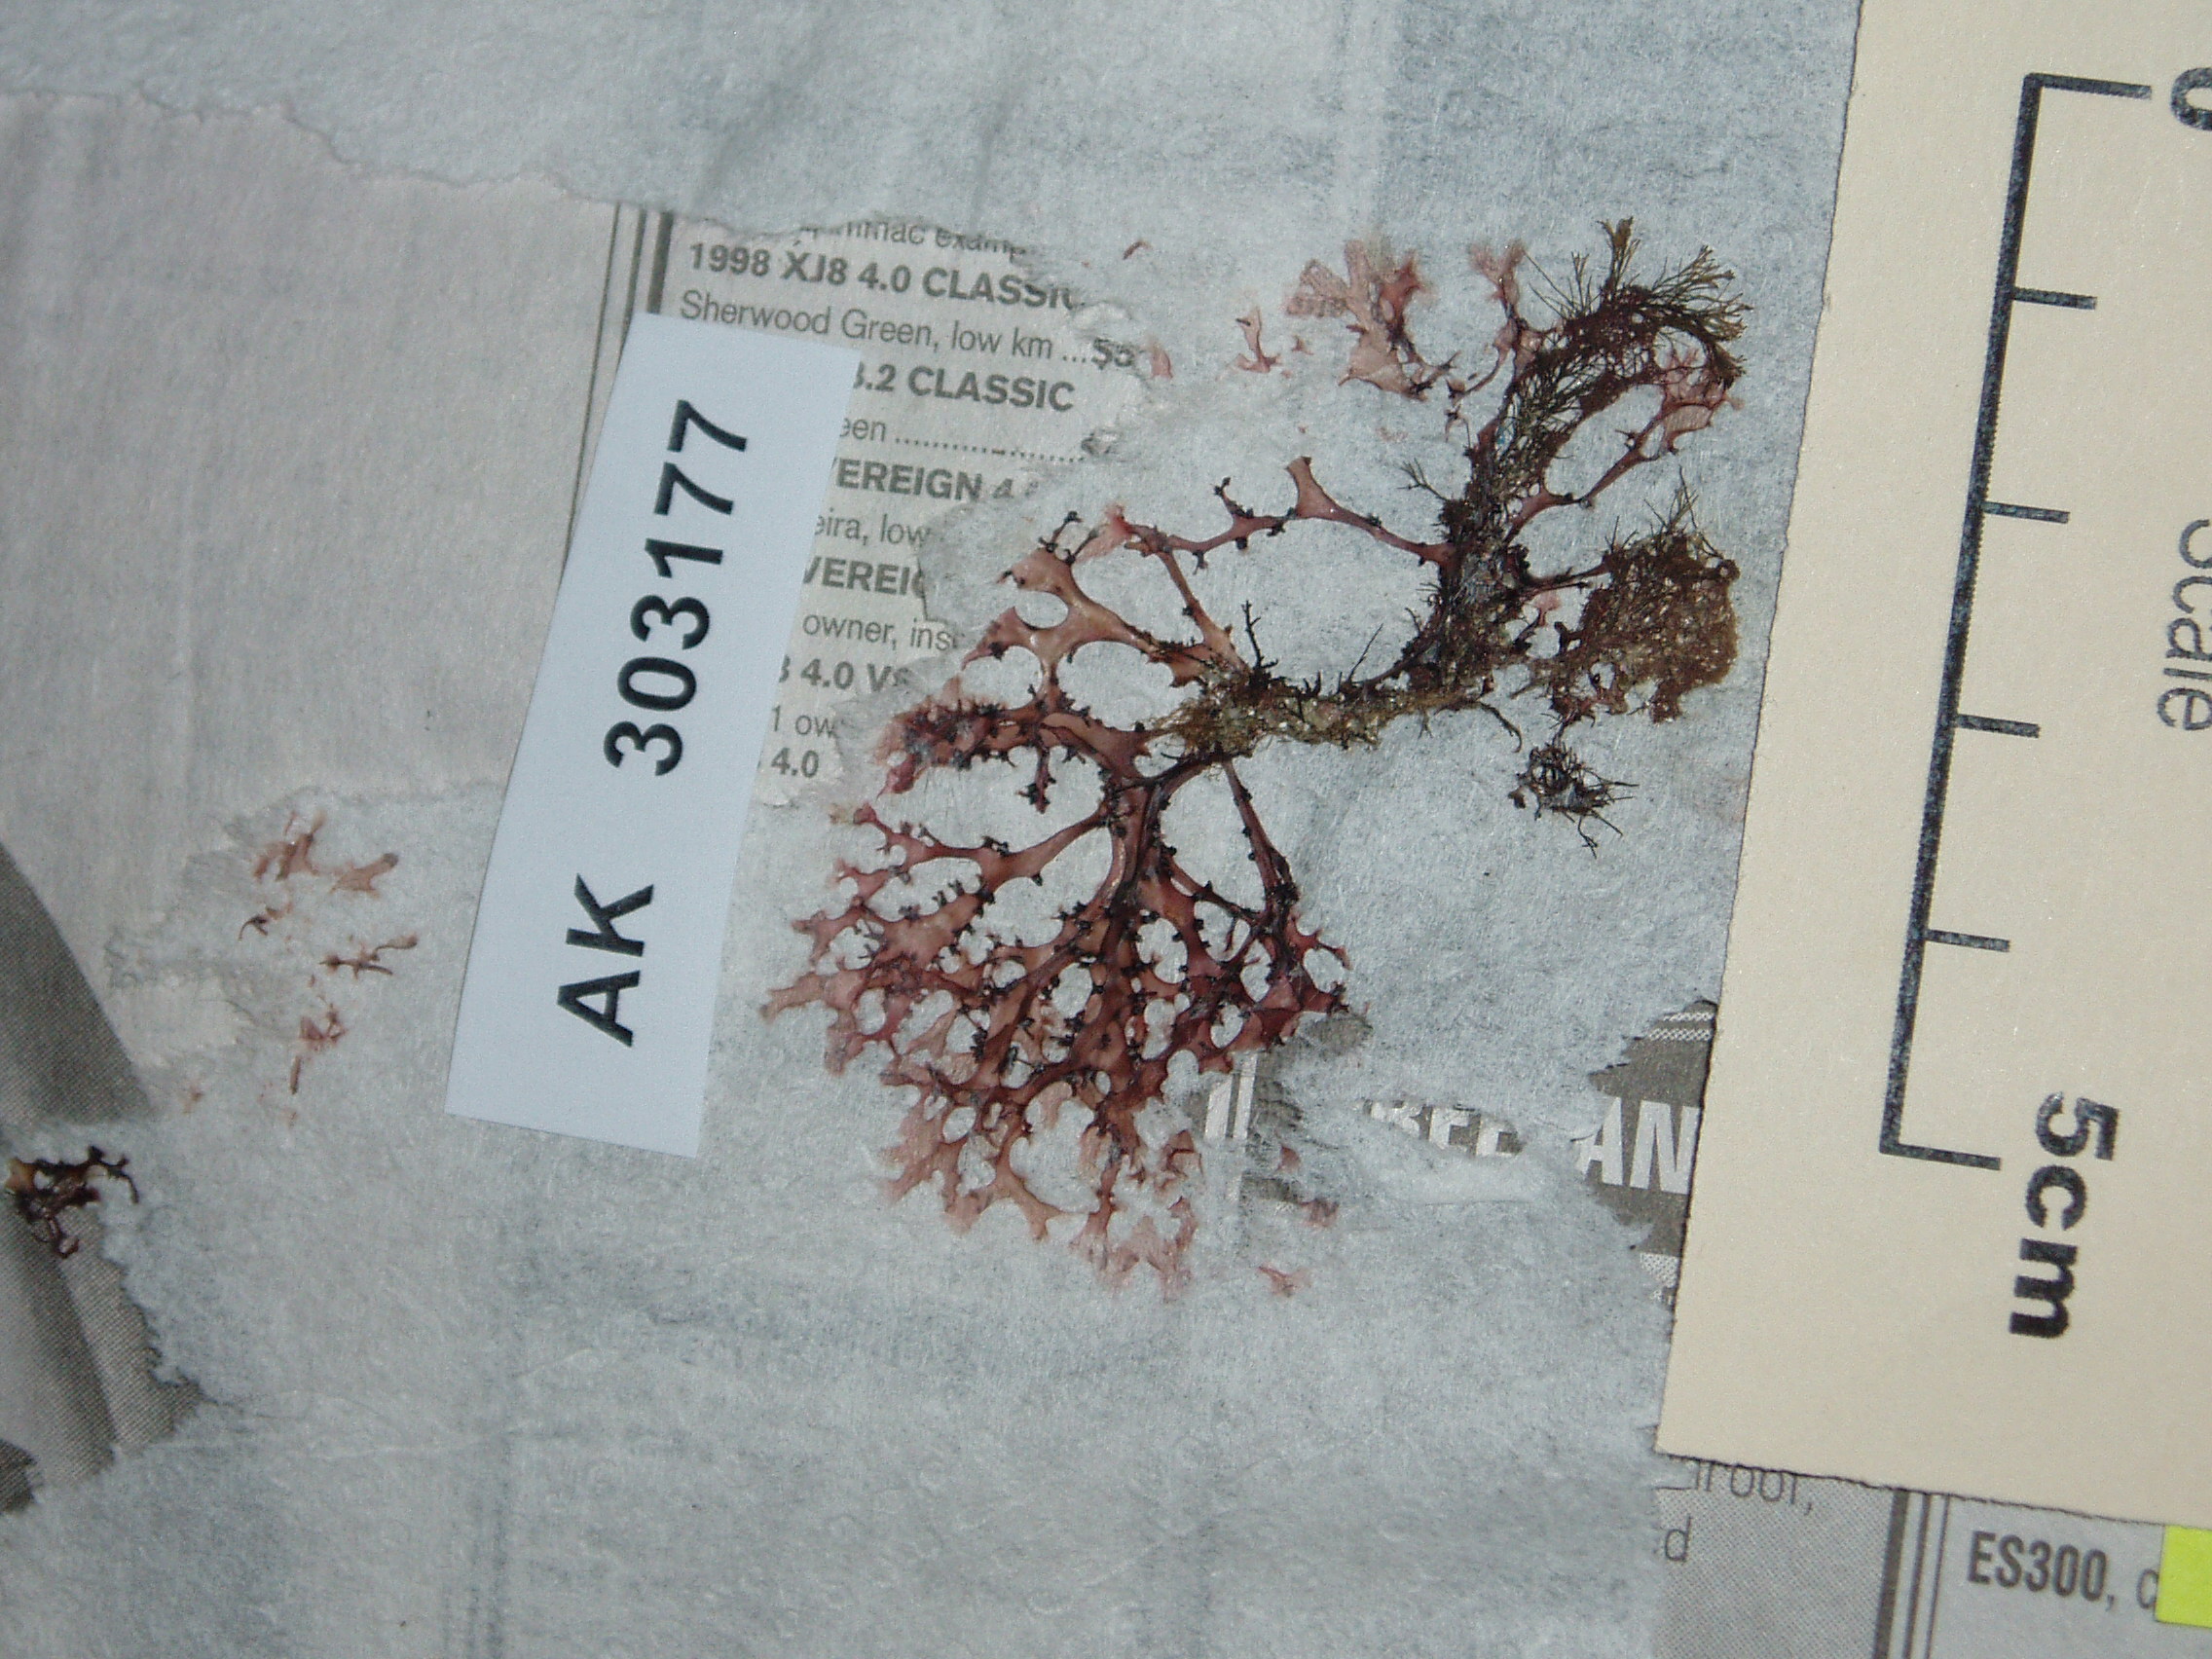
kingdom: Plantae
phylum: Rhodophyta
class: Florideophyceae
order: Rhodymeniales
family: Faucheaceae
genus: Gloiocladia
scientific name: Gloiocladia Gloiodermatopsis setchellii
